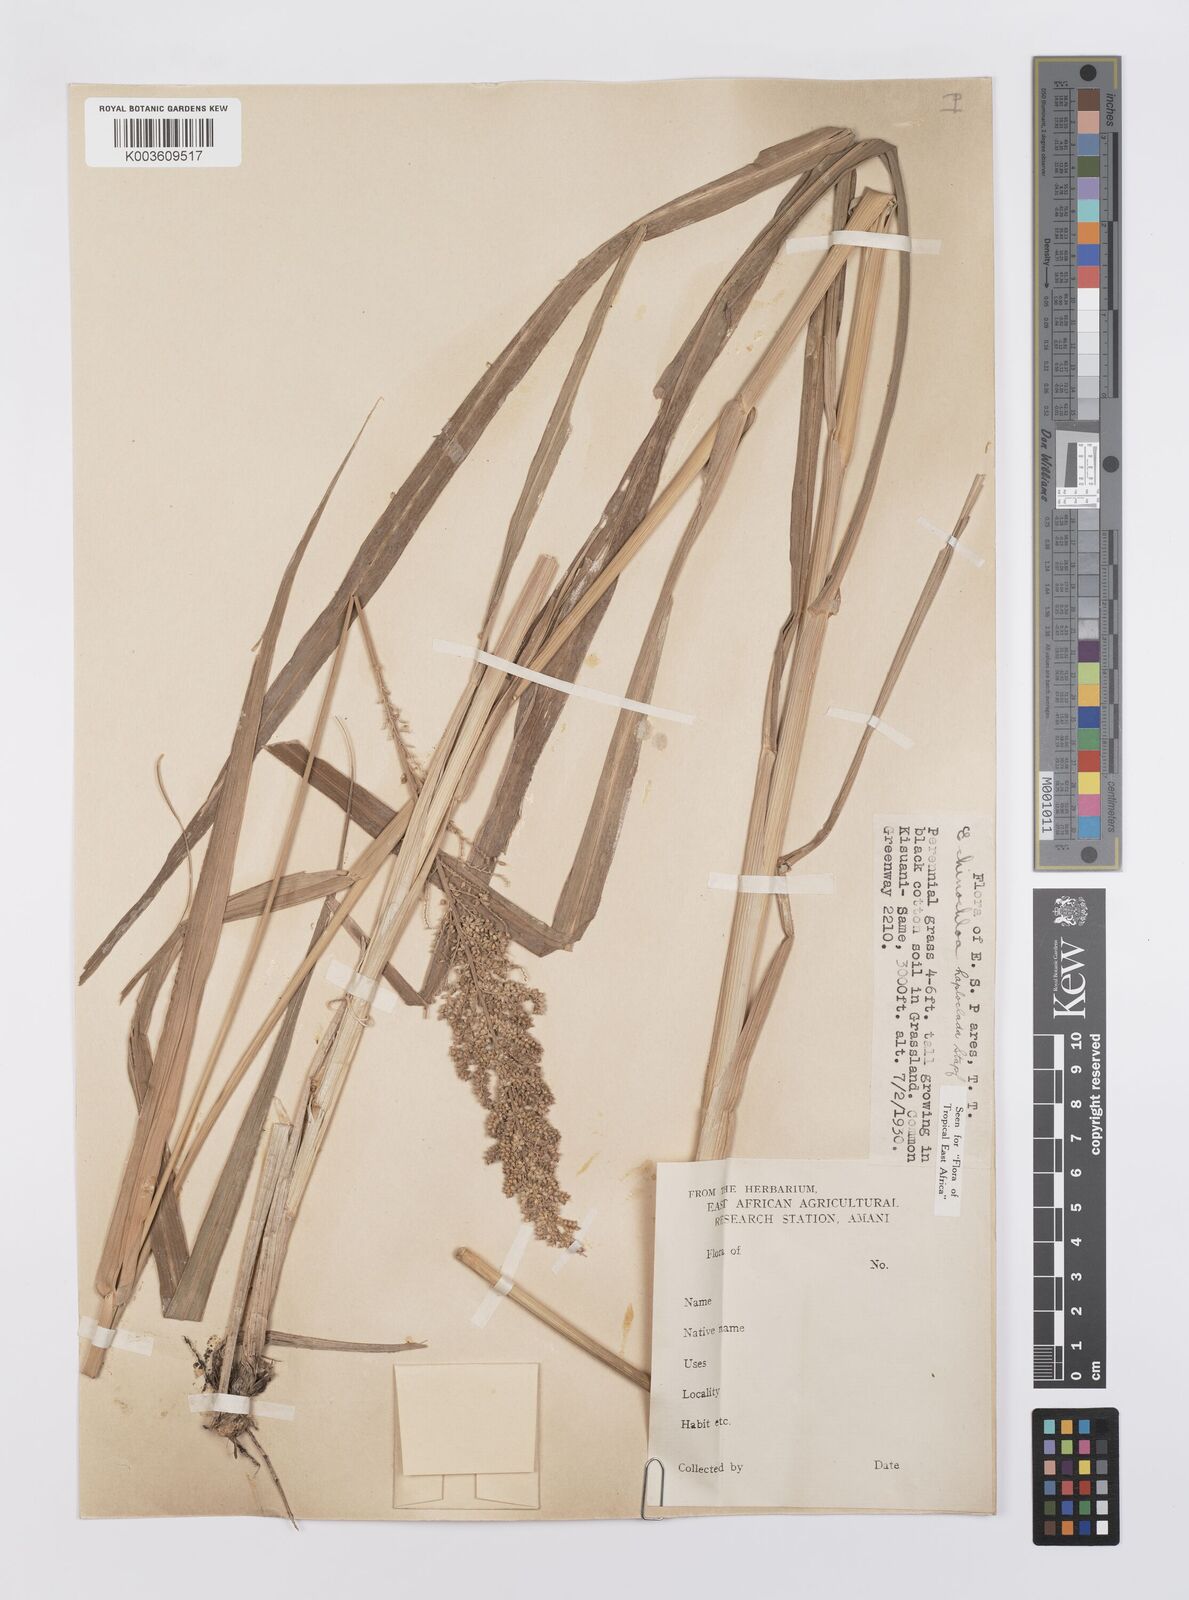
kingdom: Plantae
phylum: Tracheophyta
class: Liliopsida
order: Poales
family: Poaceae
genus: Echinochloa
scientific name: Echinochloa haploclada
